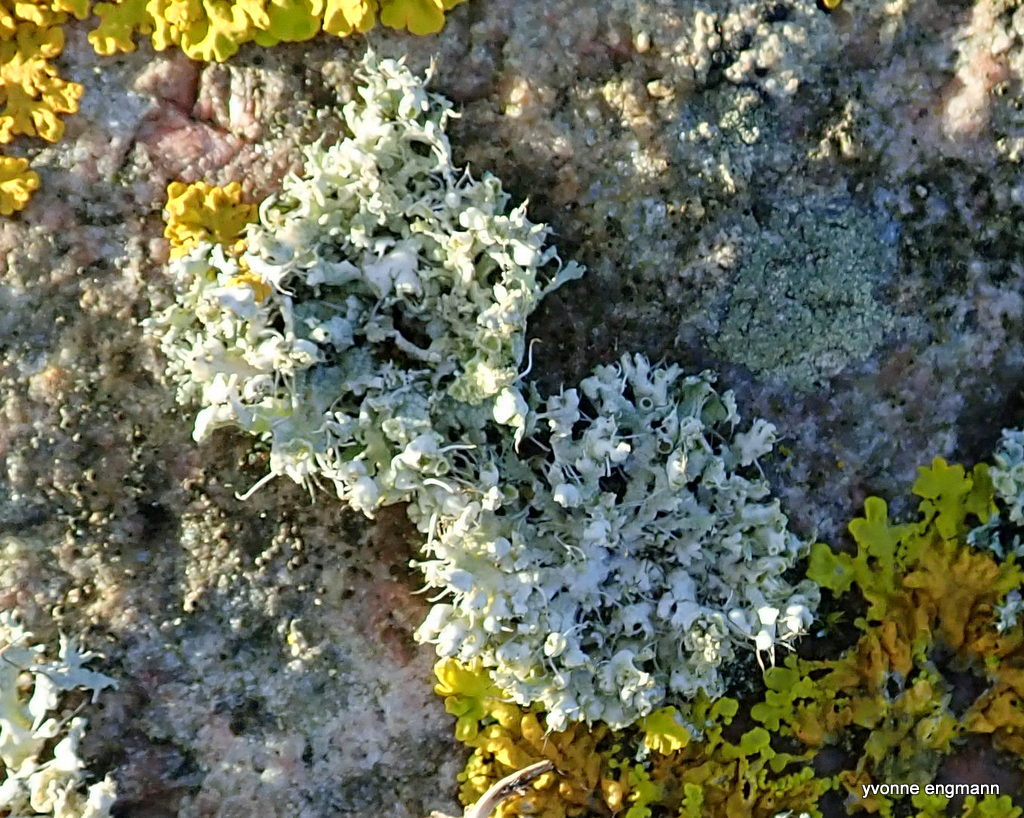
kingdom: Fungi
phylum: Ascomycota
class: Lecanoromycetes
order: Caliciales
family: Physciaceae
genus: Physcia
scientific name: Physcia tenella
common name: spæd rosetlav
